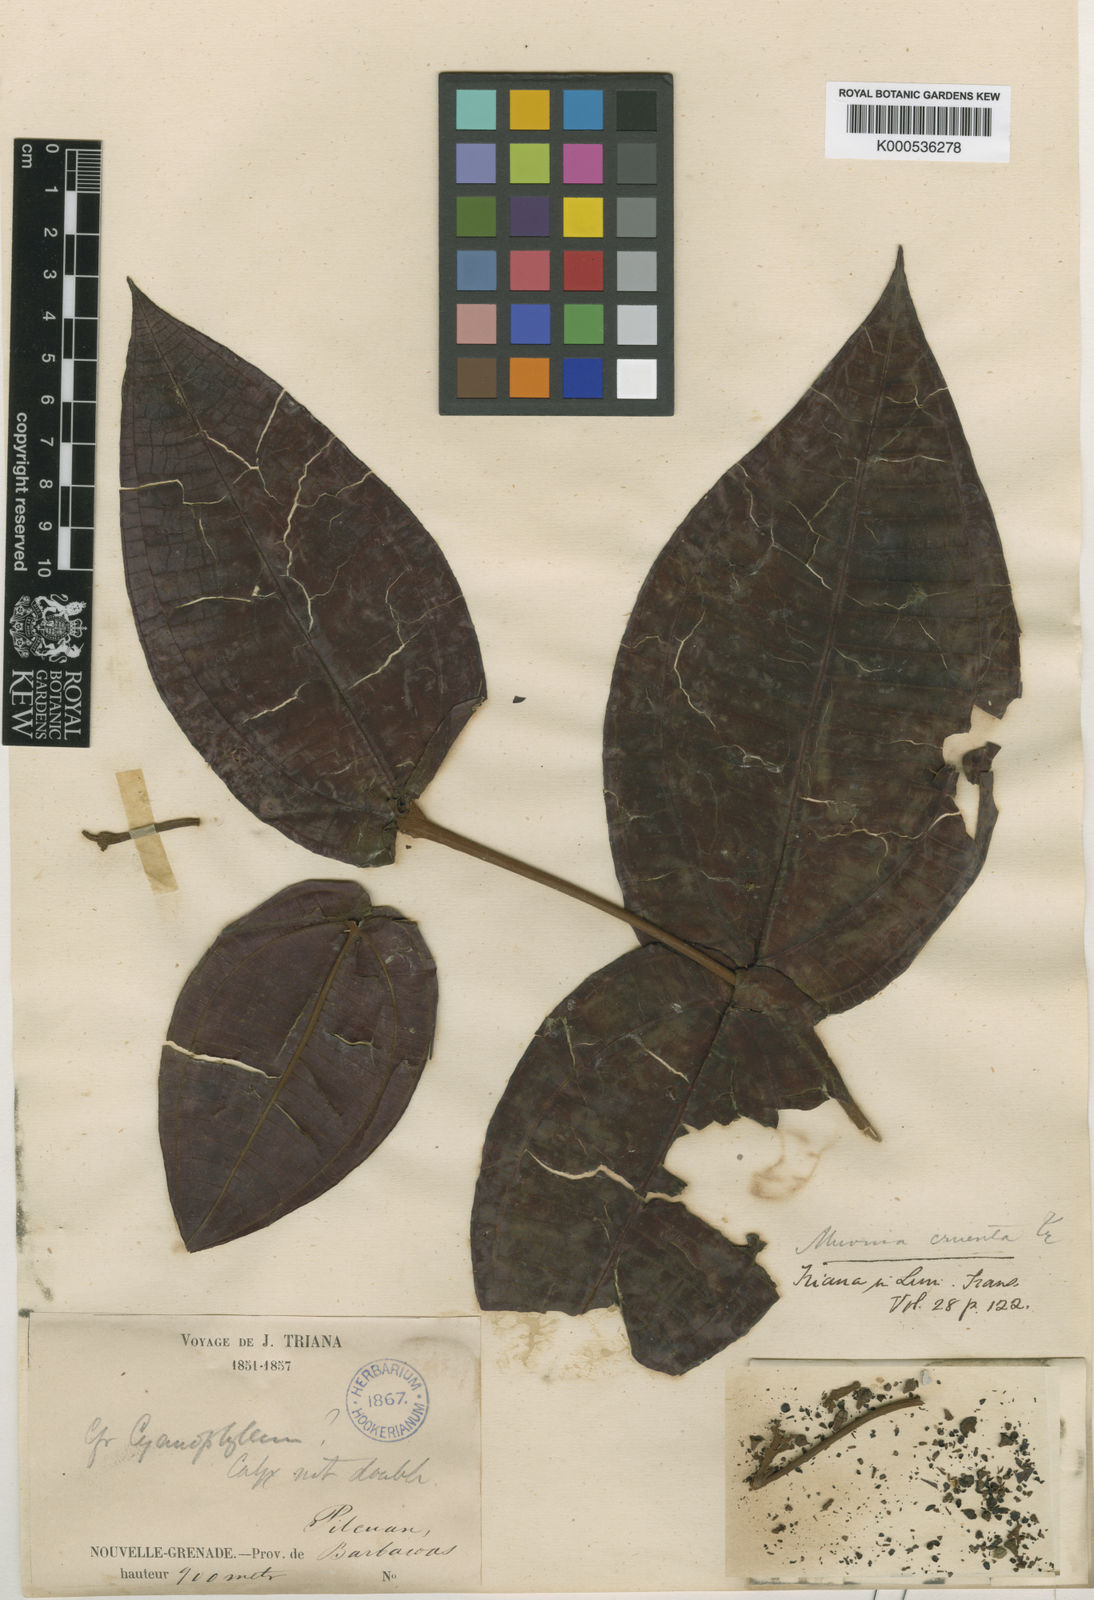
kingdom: Plantae
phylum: Tracheophyta
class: Magnoliopsida
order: Myrtales
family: Melastomataceae
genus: Miconia
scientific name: Miconia cruenta
